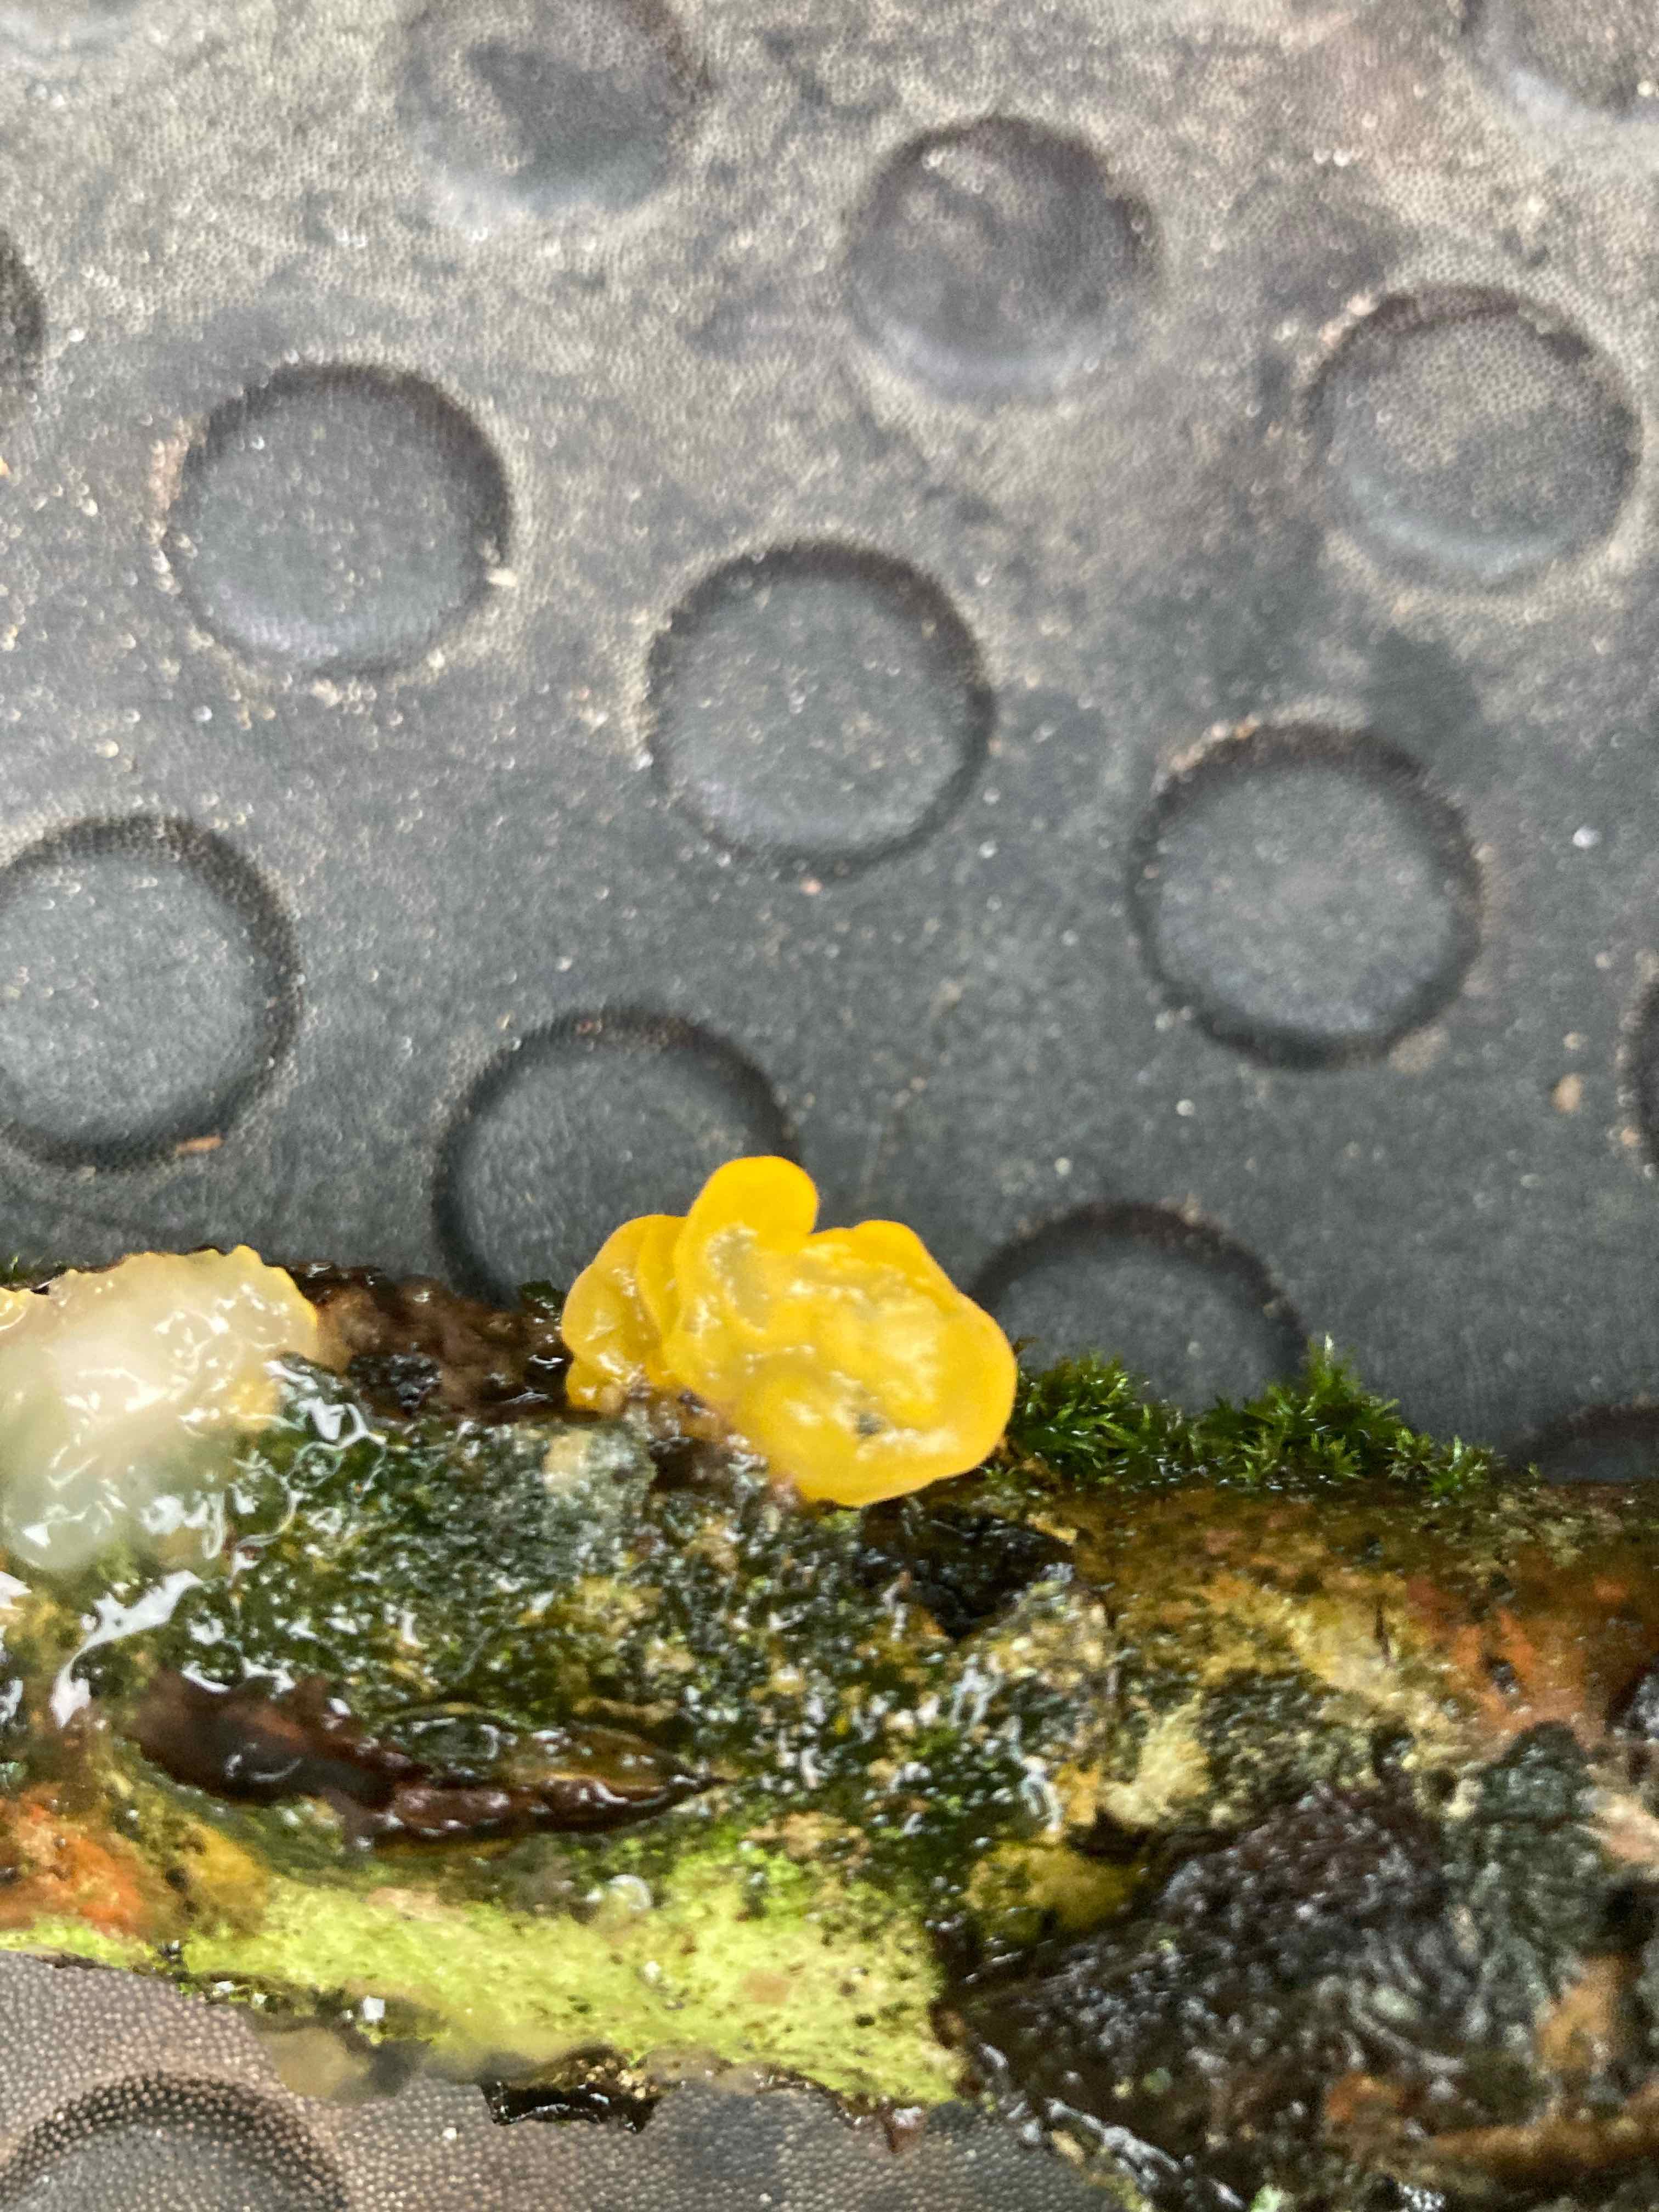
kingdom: Fungi
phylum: Basidiomycota
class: Tremellomycetes
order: Tremellales
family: Tremellaceae
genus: Tremella
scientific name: Tremella mesenterica
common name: gul bævresvamp
